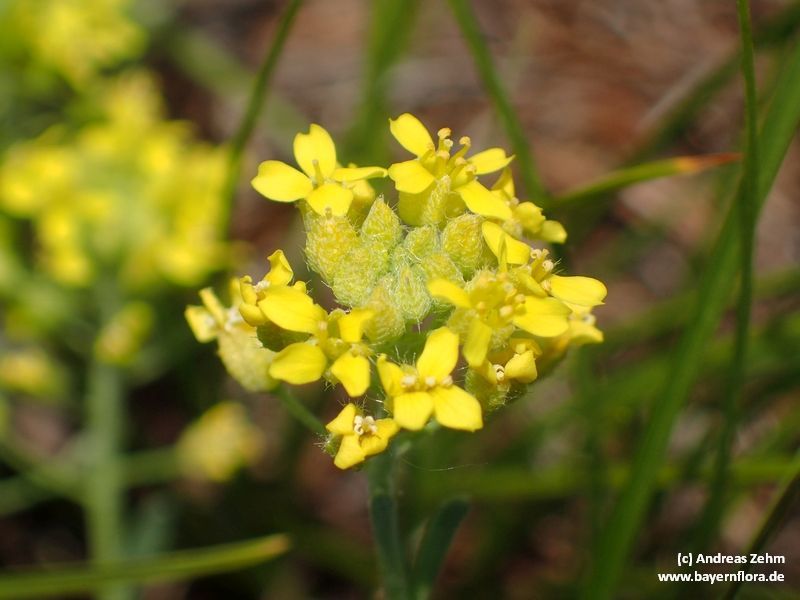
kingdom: Plantae
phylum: Tracheophyta
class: Magnoliopsida
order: Brassicales
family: Brassicaceae
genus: Alyssum
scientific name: Alyssum gmelinii
